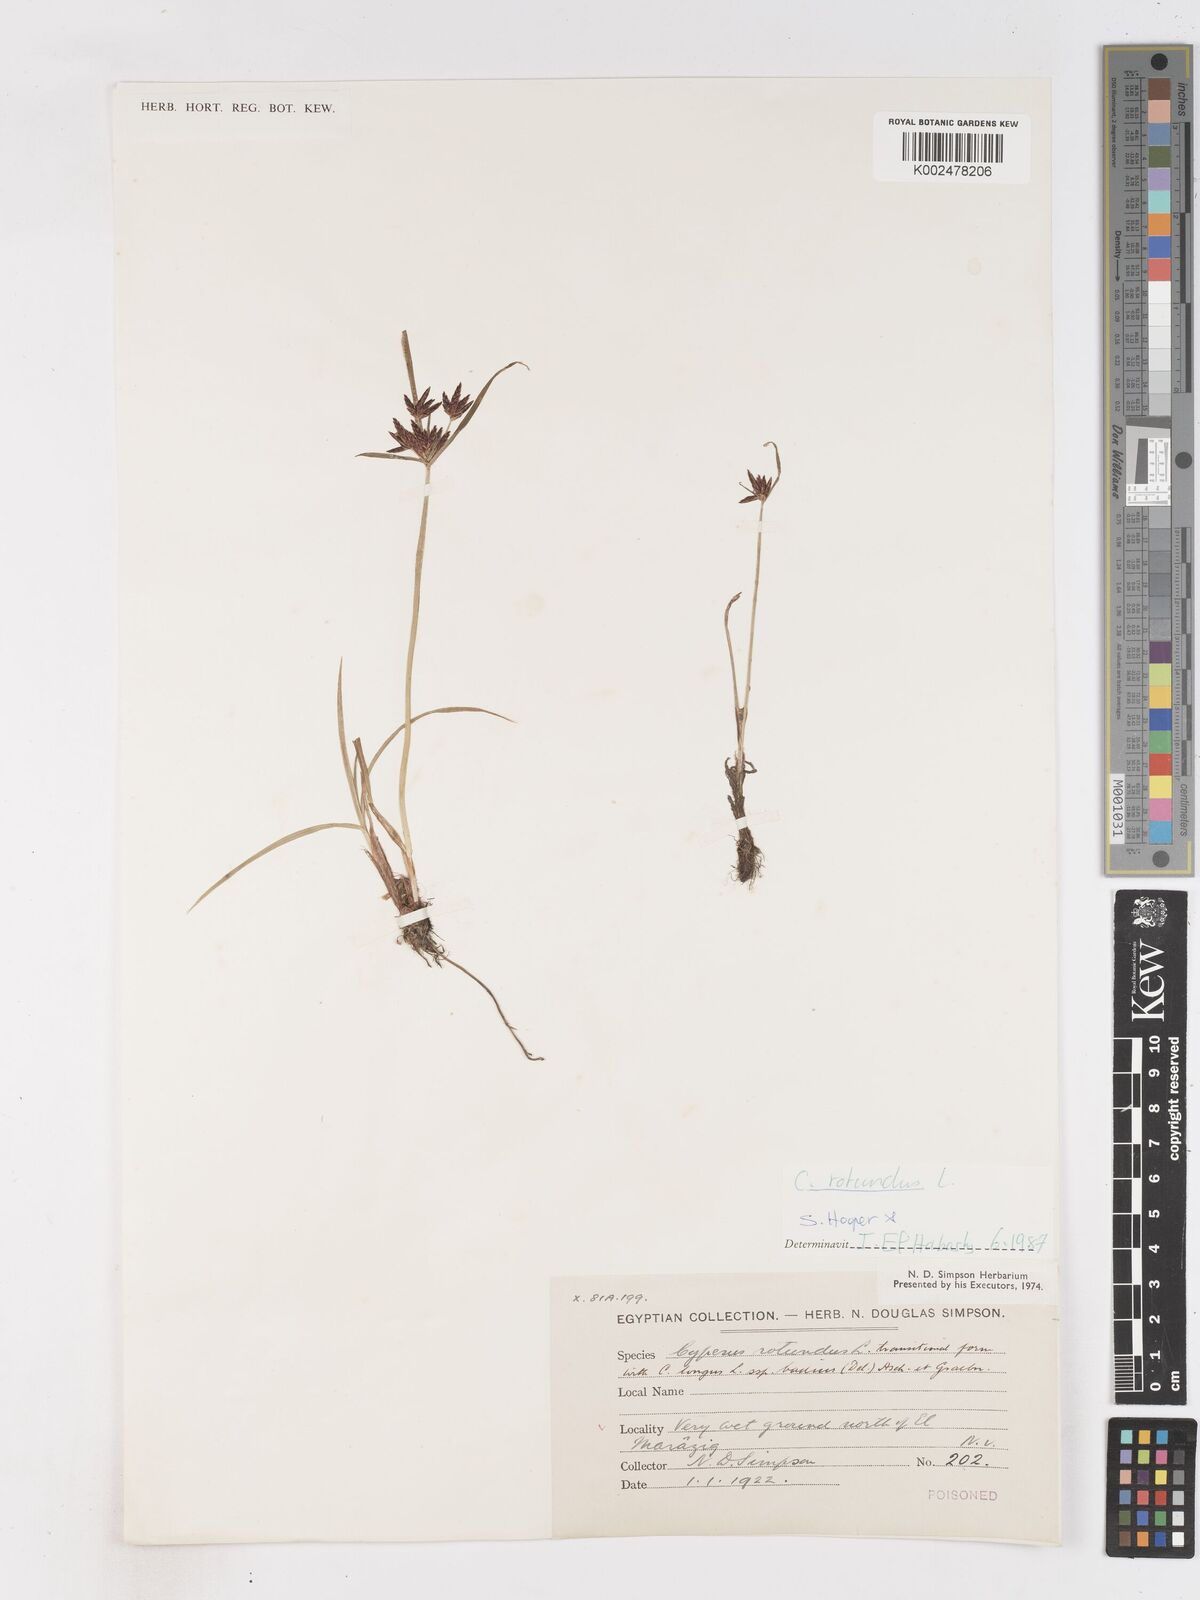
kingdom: Plantae
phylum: Tracheophyta
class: Liliopsida
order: Poales
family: Cyperaceae
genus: Cyperus
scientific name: Cyperus rotundus
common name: Nutgrass
